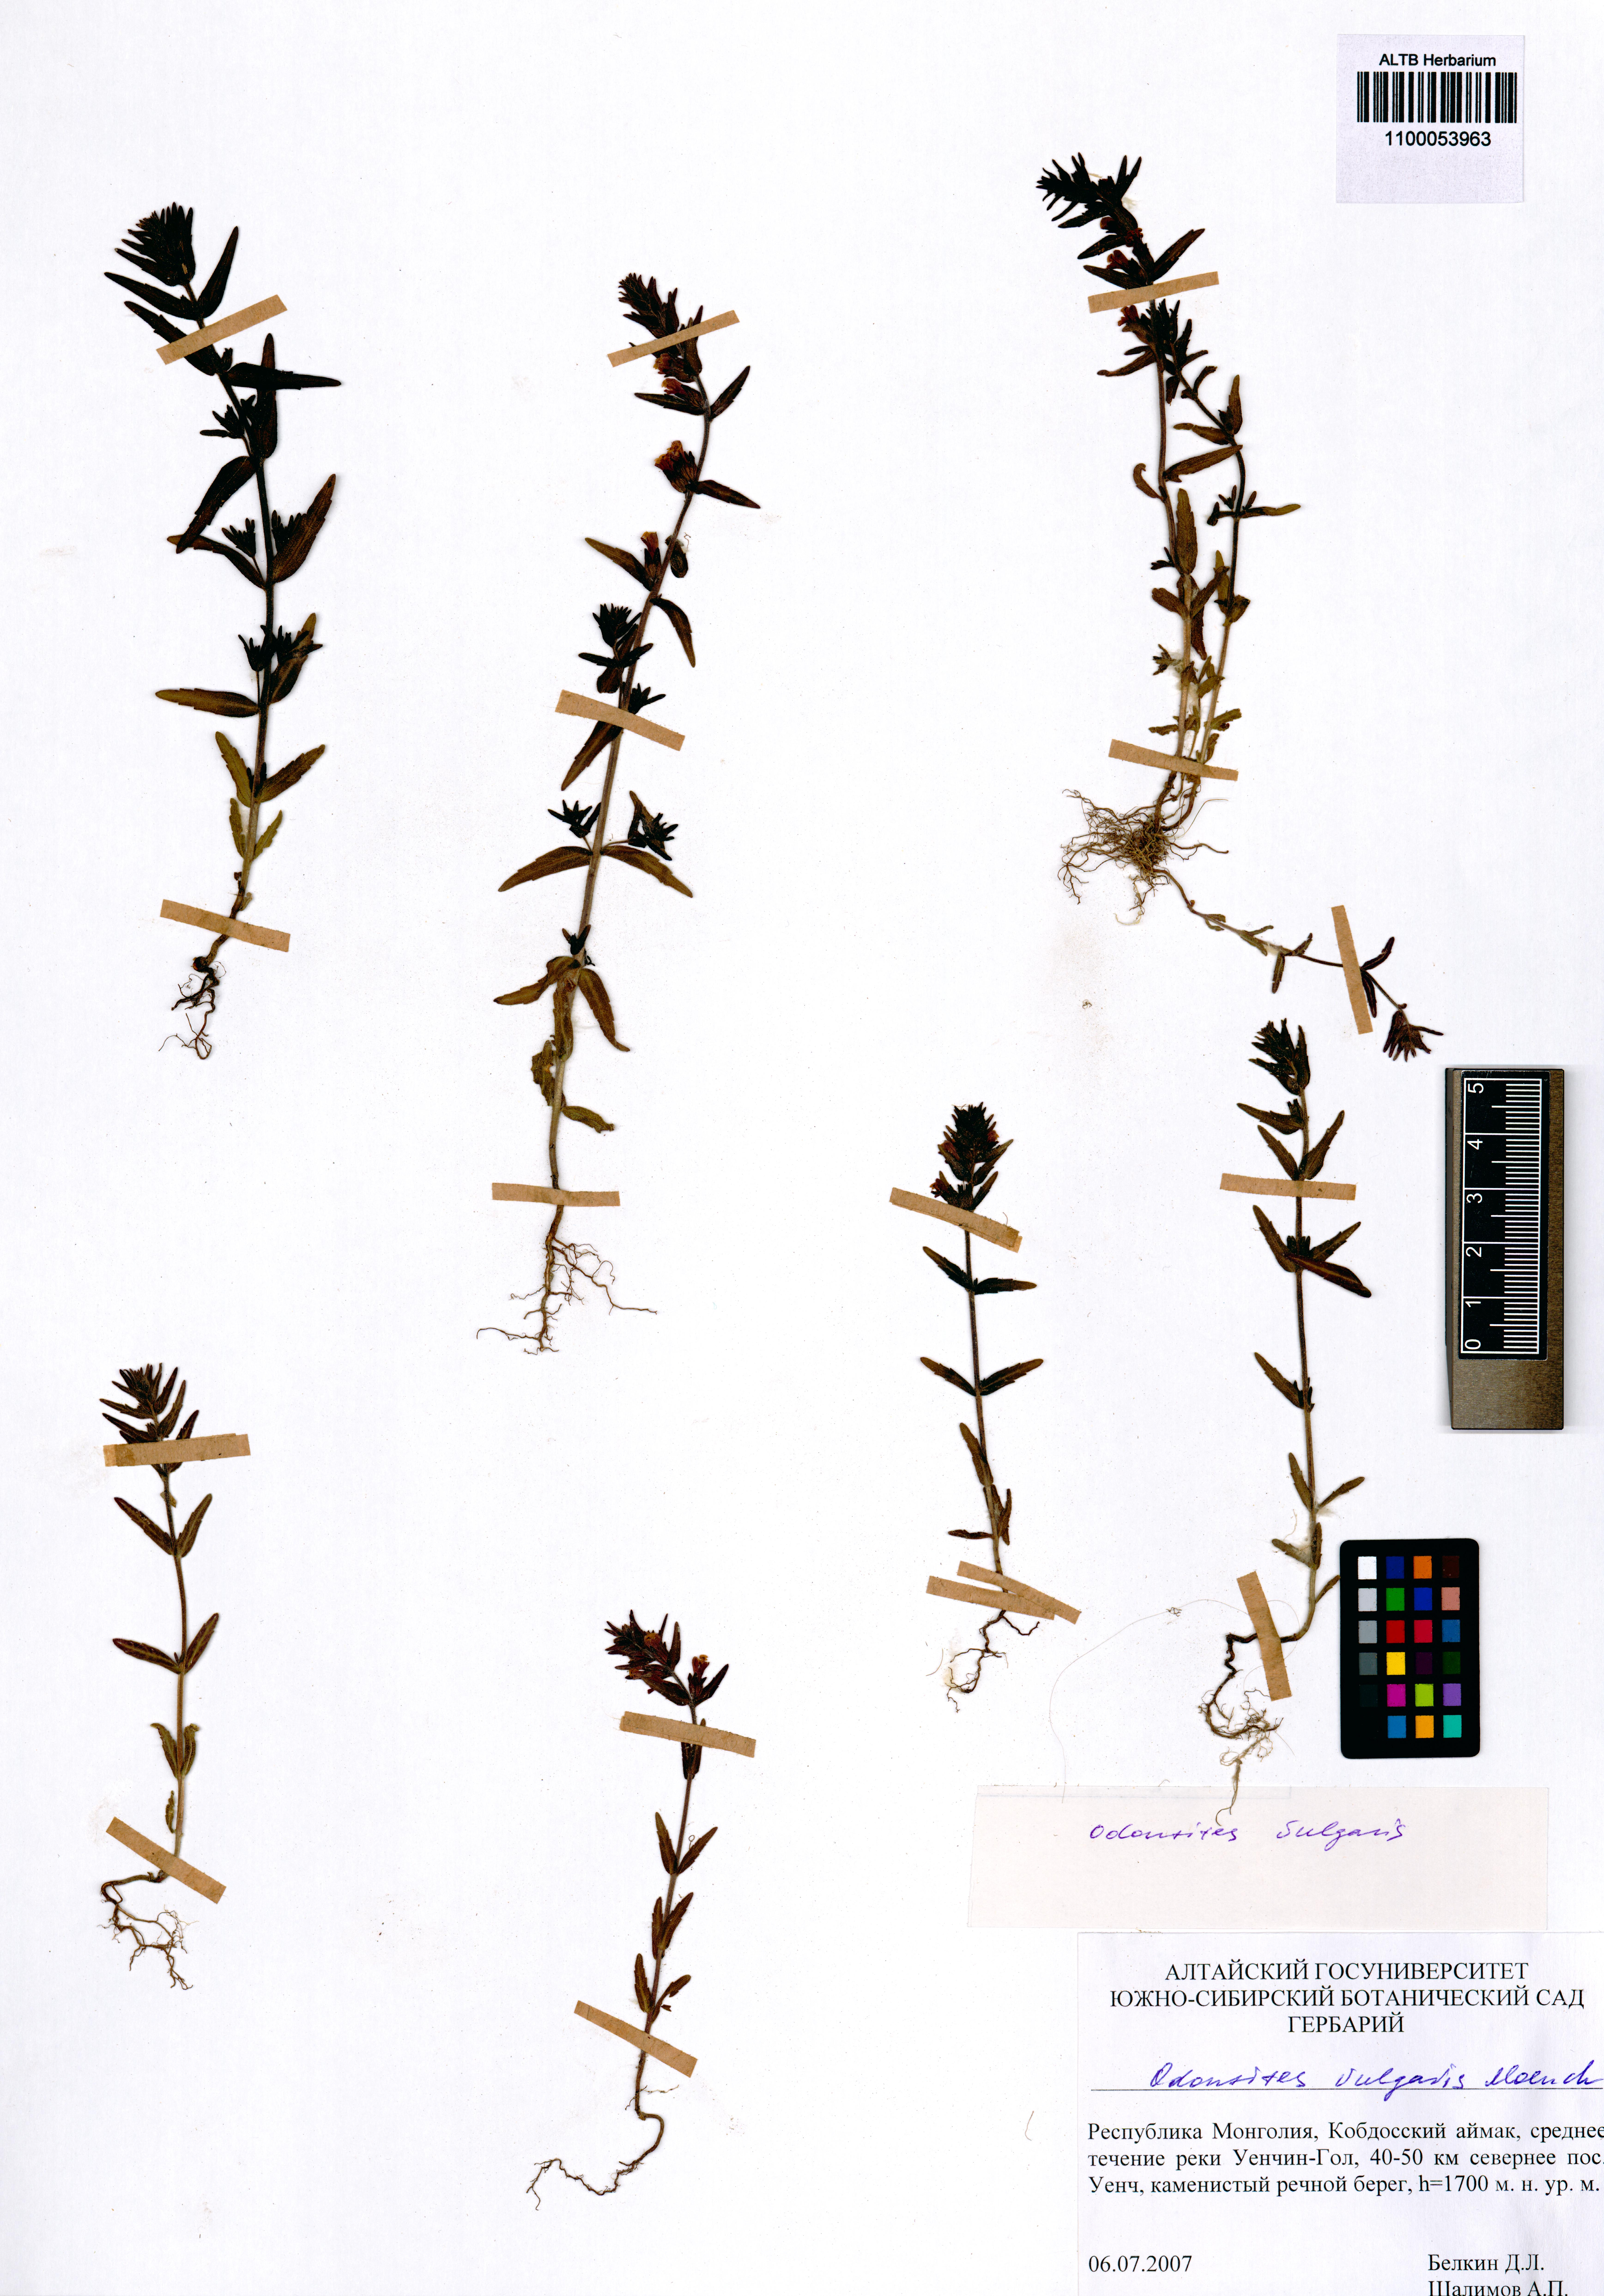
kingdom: Plantae
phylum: Tracheophyta
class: Magnoliopsida
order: Lamiales
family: Orobanchaceae
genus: Odontites
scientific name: Odontites vulgaris
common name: Broomrape
